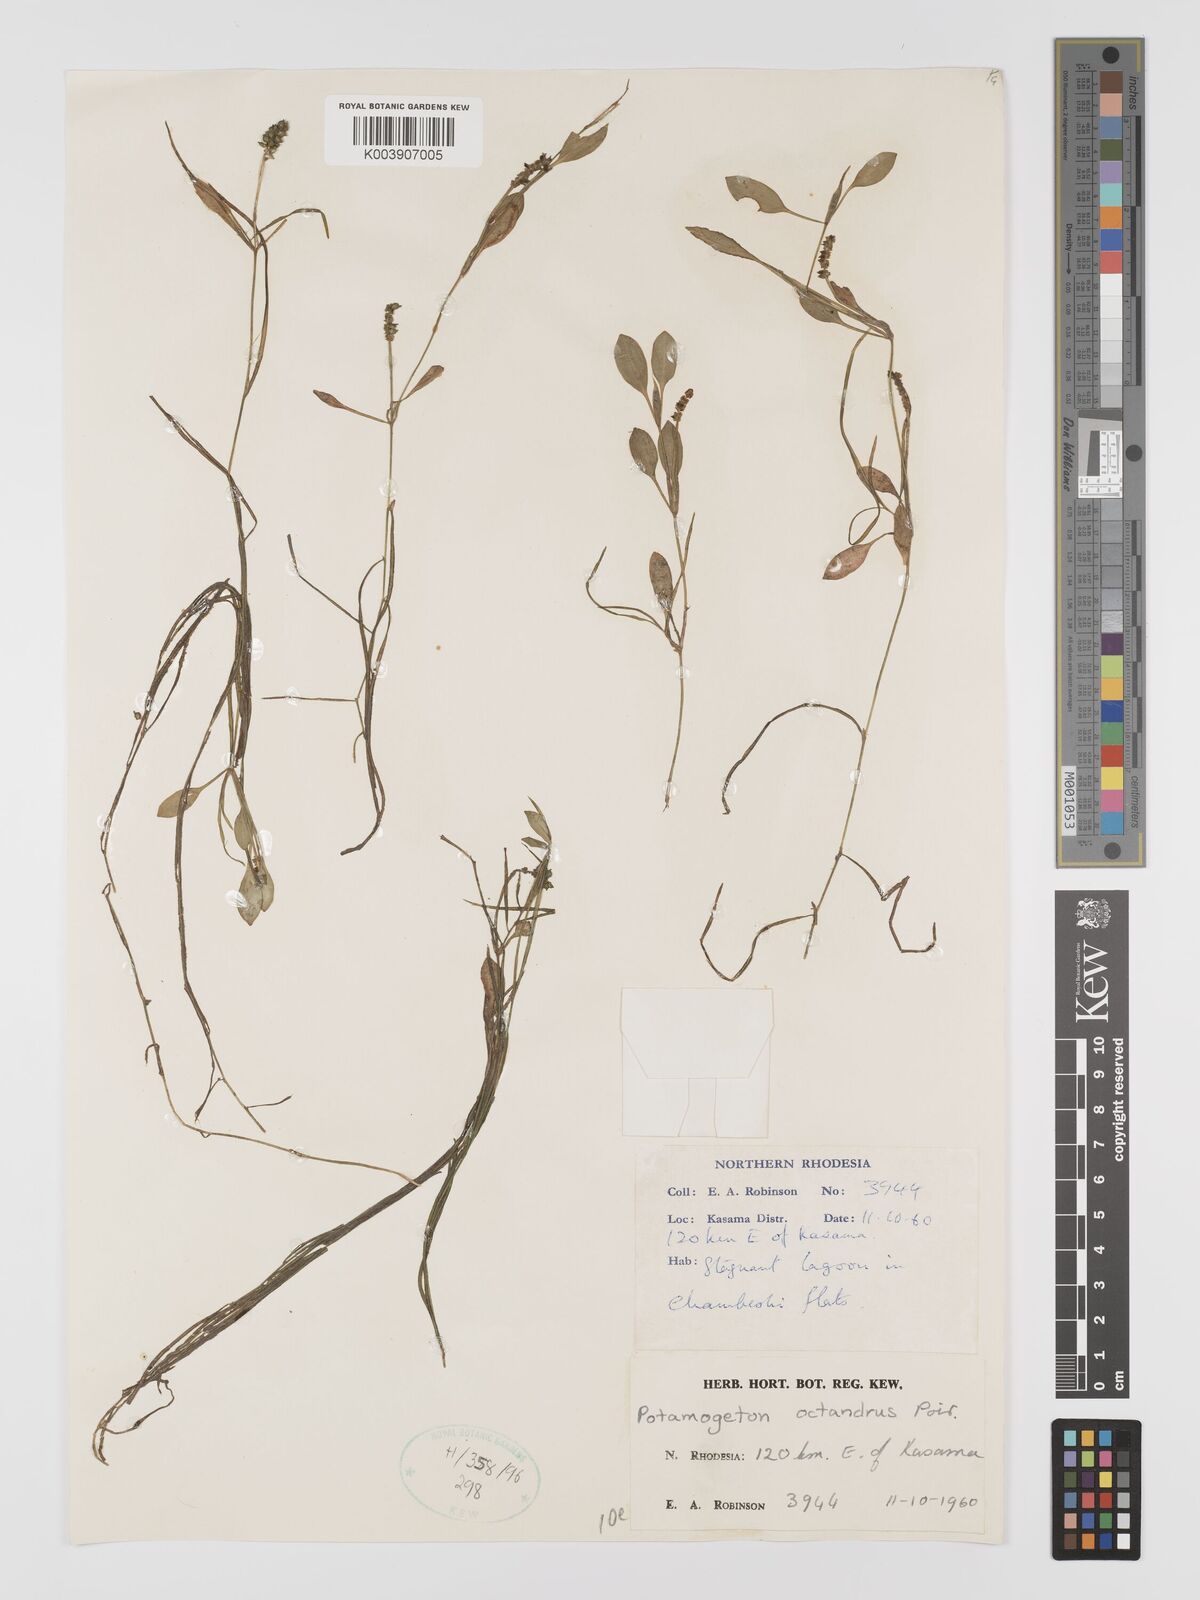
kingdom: Plantae
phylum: Tracheophyta
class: Liliopsida
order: Alismatales
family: Potamogetonaceae
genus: Potamogeton
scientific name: Potamogeton octandrus
